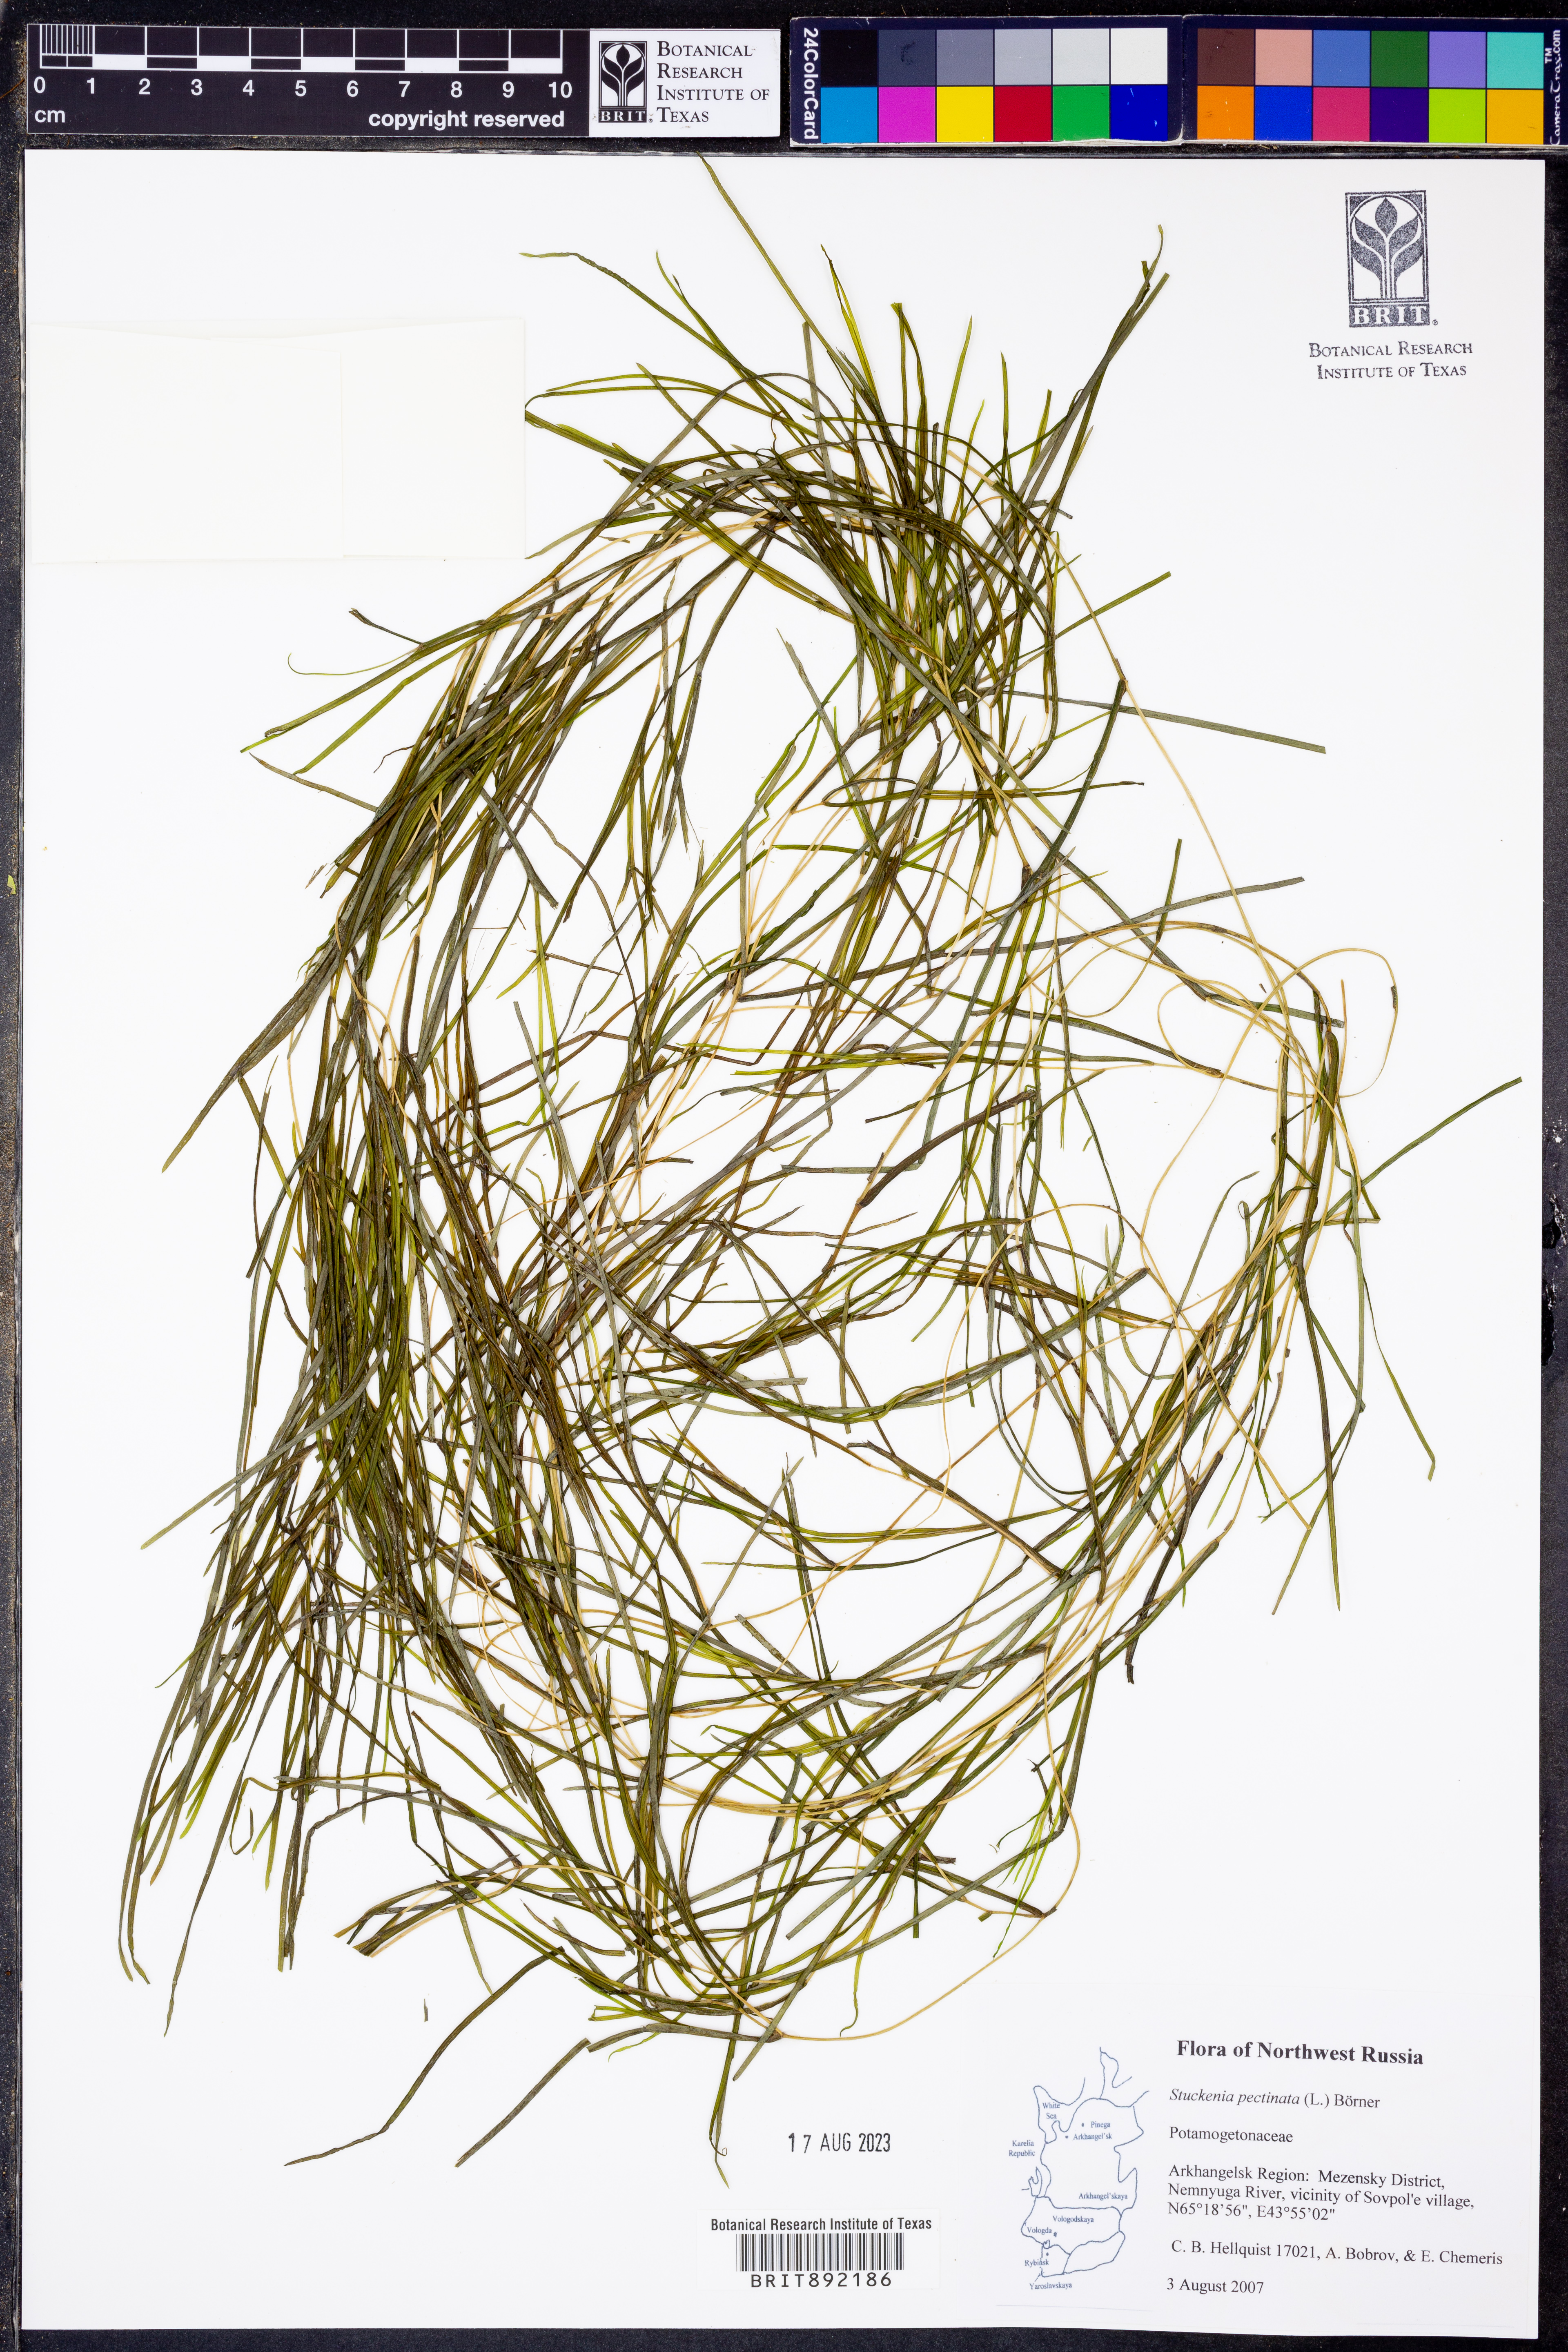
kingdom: Plantae
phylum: Tracheophyta
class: Liliopsida
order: Alismatales
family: Potamogetonaceae
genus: Stuckenia
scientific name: Stuckenia pectinata
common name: Sago pondweed
